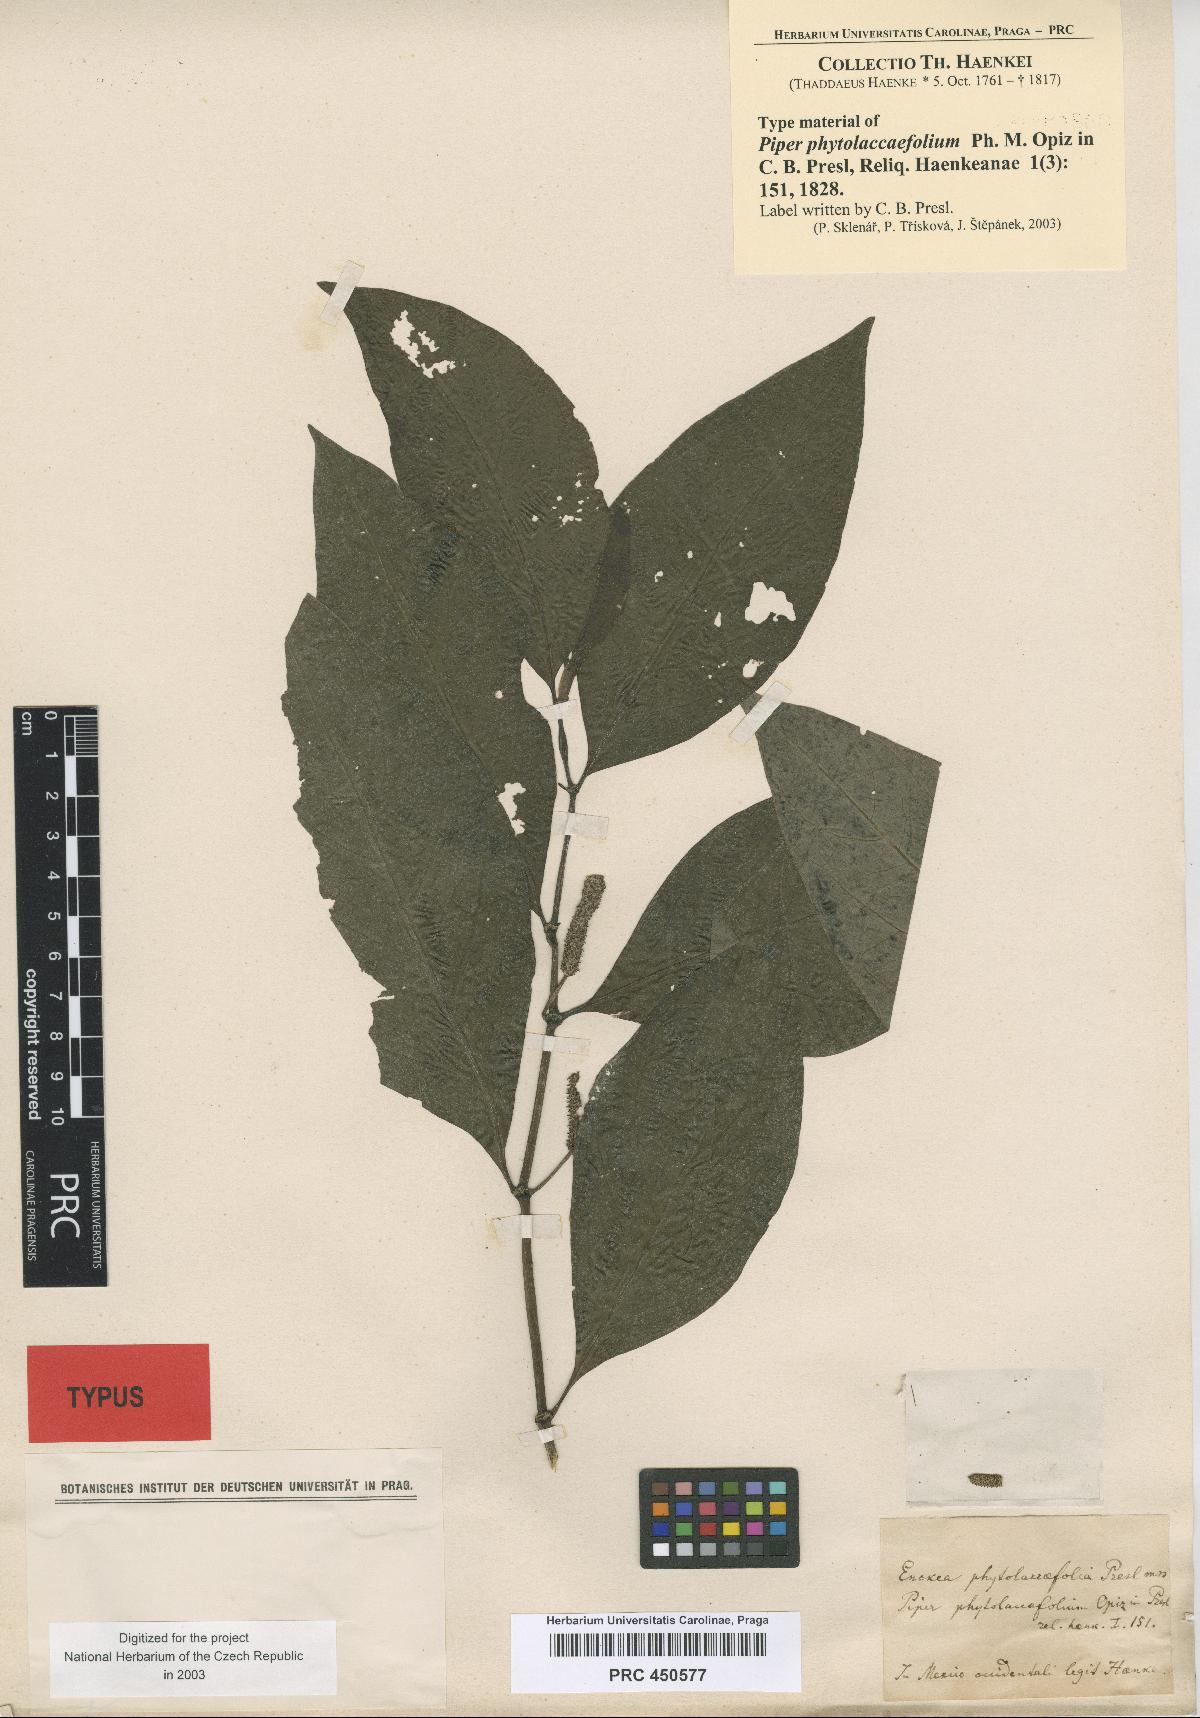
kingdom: Plantae
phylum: Tracheophyta
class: Magnoliopsida
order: Piperales
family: Piperaceae
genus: Piper
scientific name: Piper phytolaccifolium
